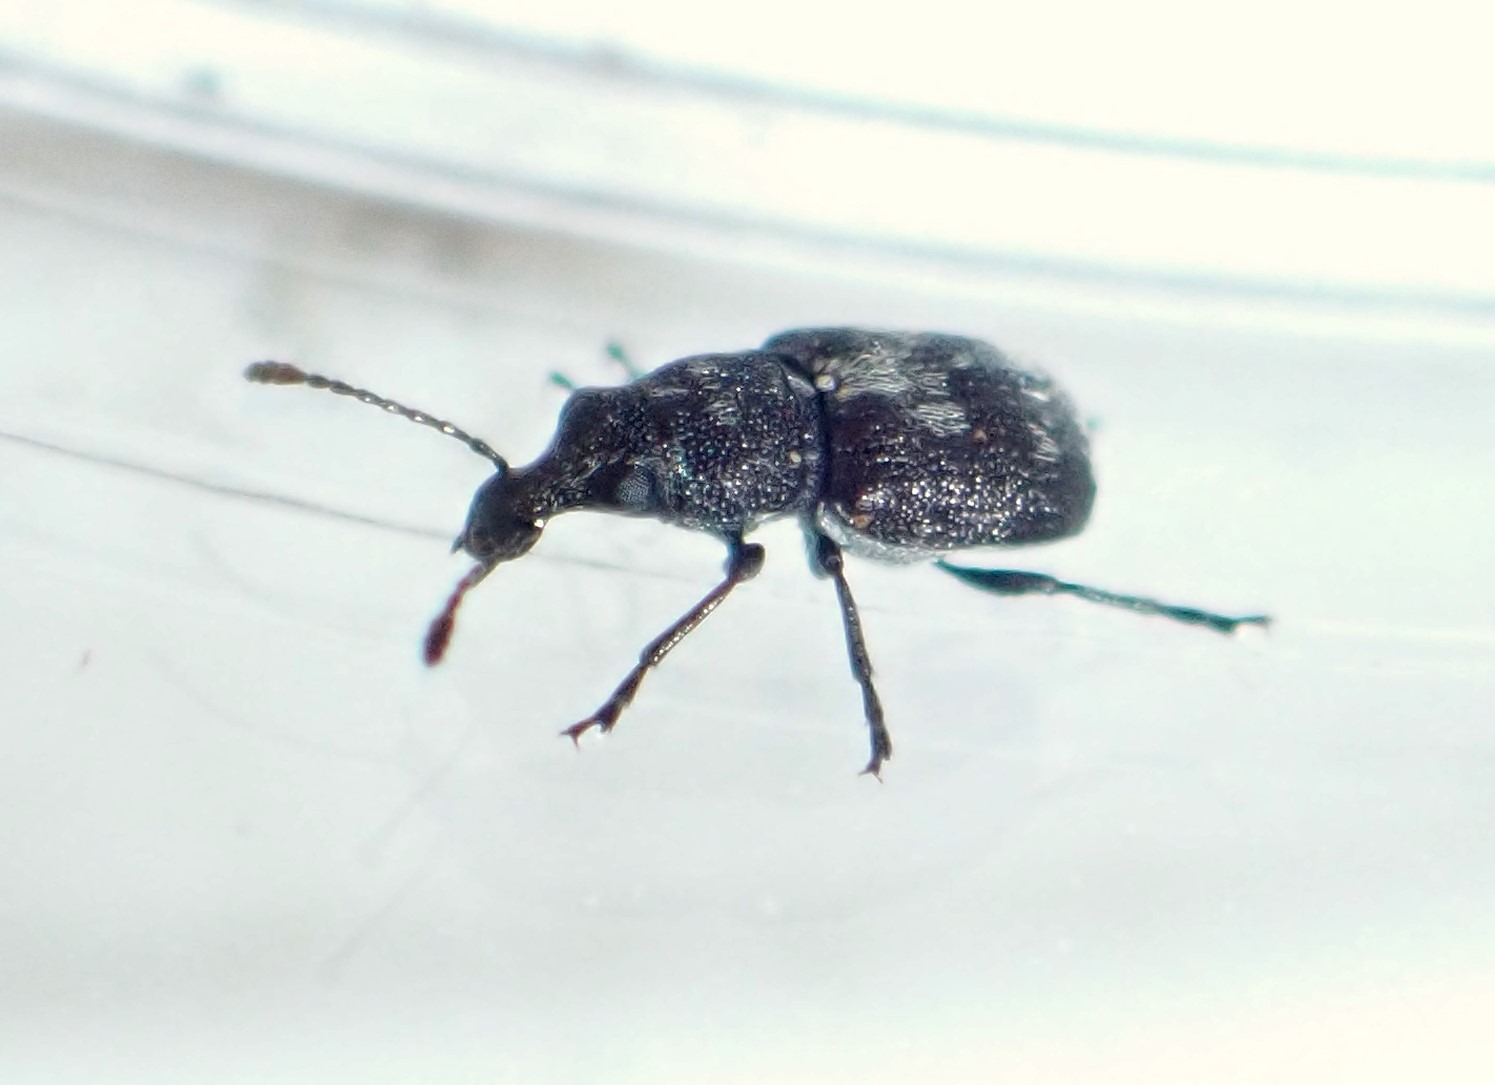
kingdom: Animalia
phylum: Arthropoda
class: Insecta
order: Coleoptera
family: Anthribidae
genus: Allandrus
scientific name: Allandrus undulatus
